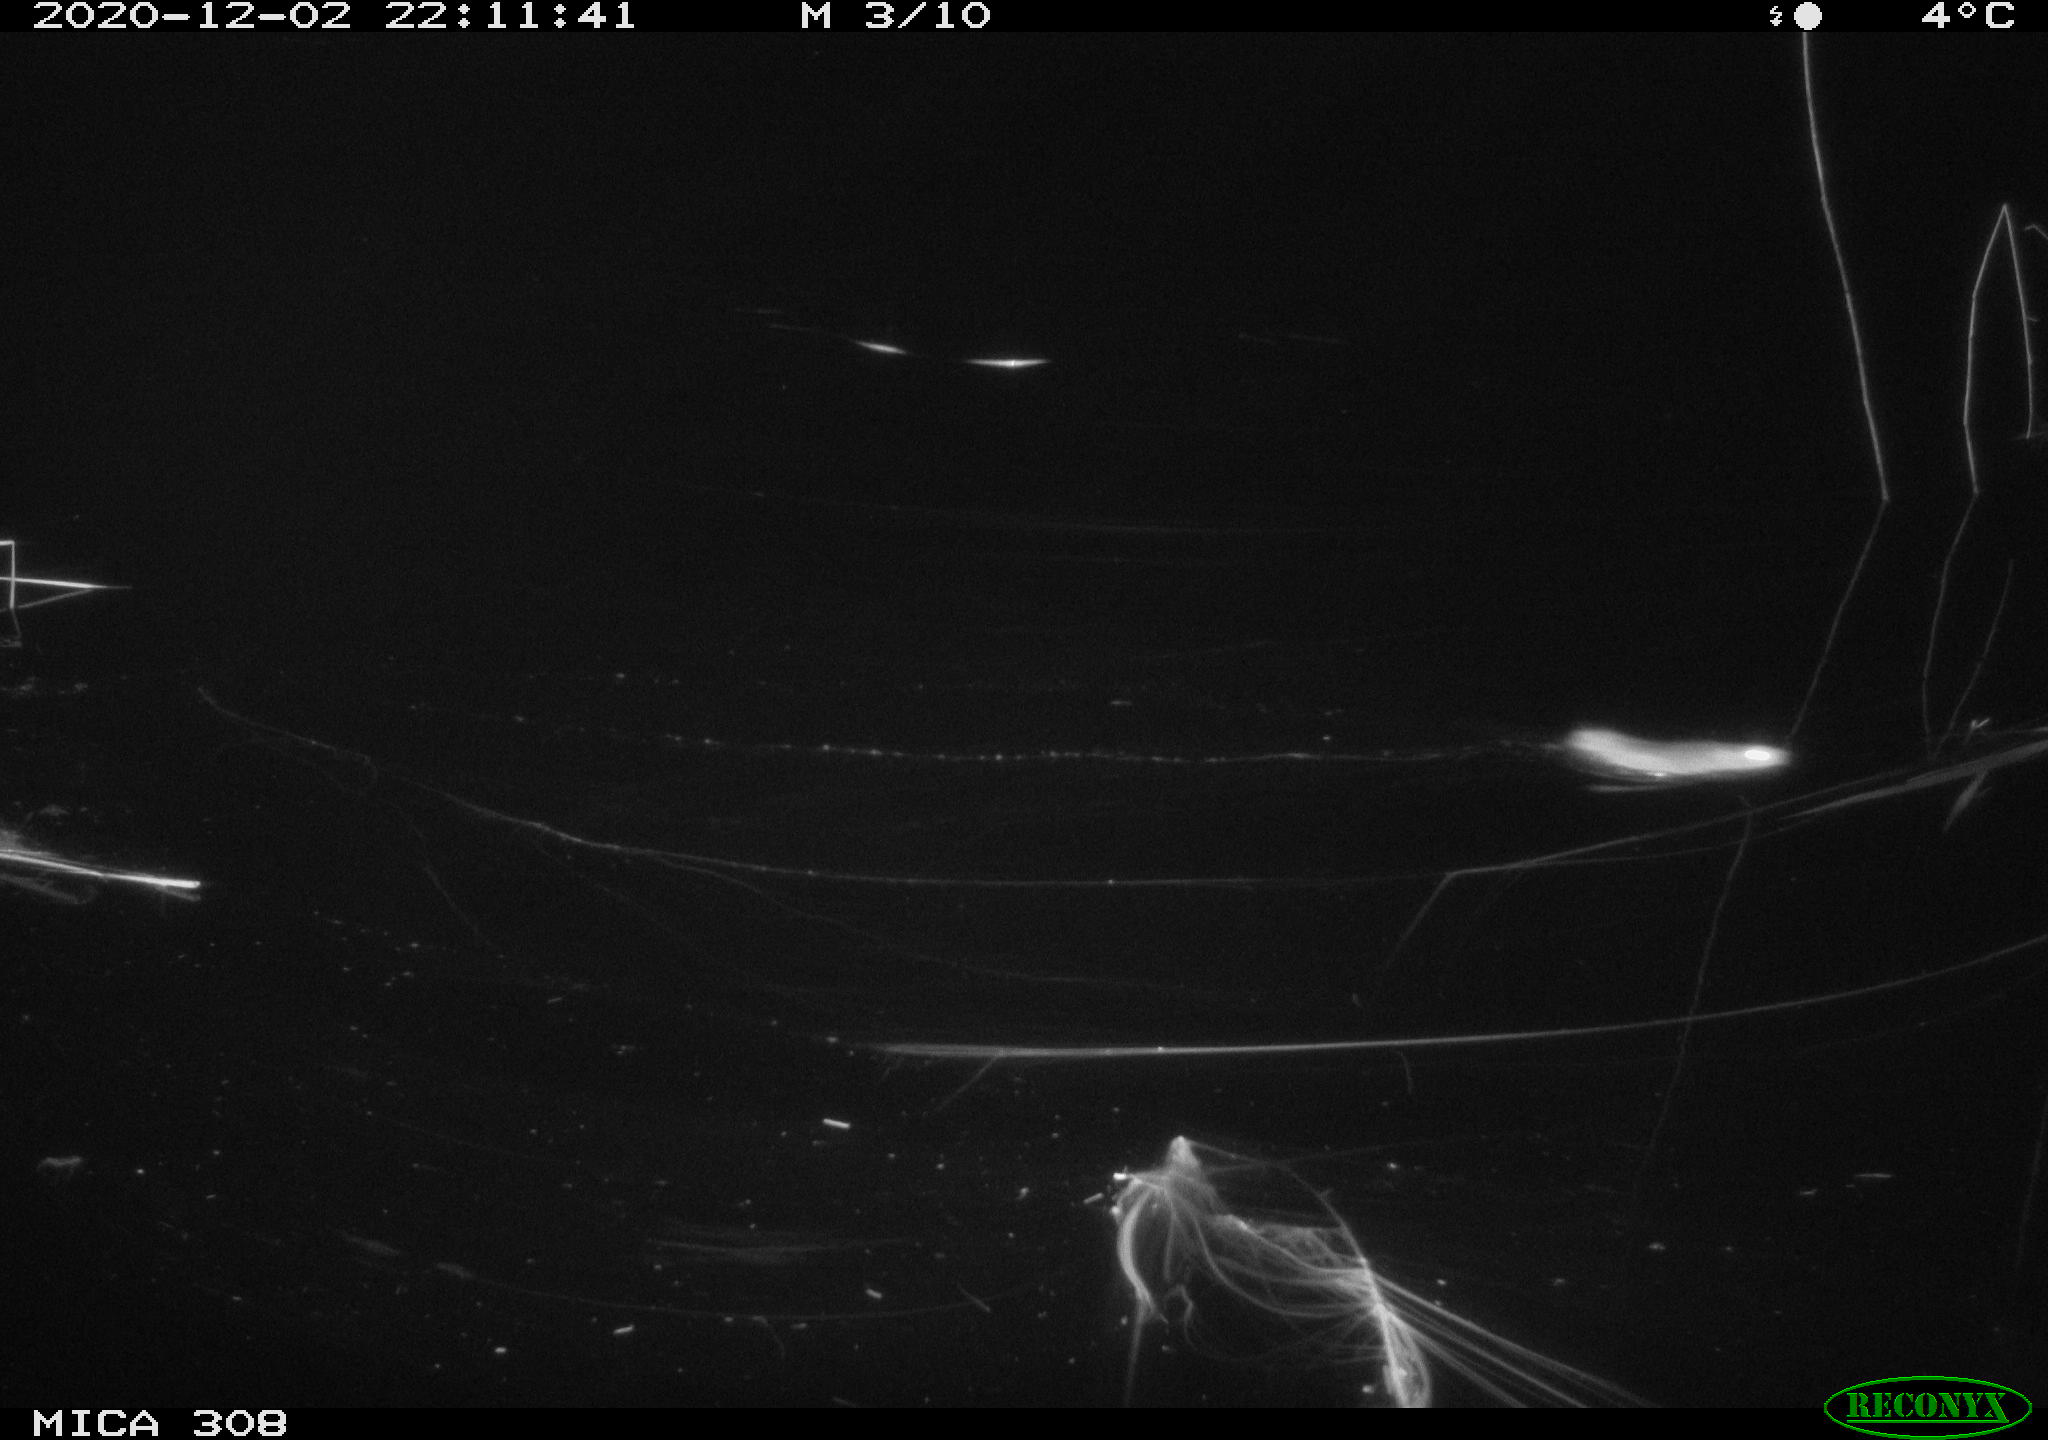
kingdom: Animalia
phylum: Chordata
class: Mammalia
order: Rodentia
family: Muridae
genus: Rattus
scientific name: Rattus norvegicus
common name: Brown rat
